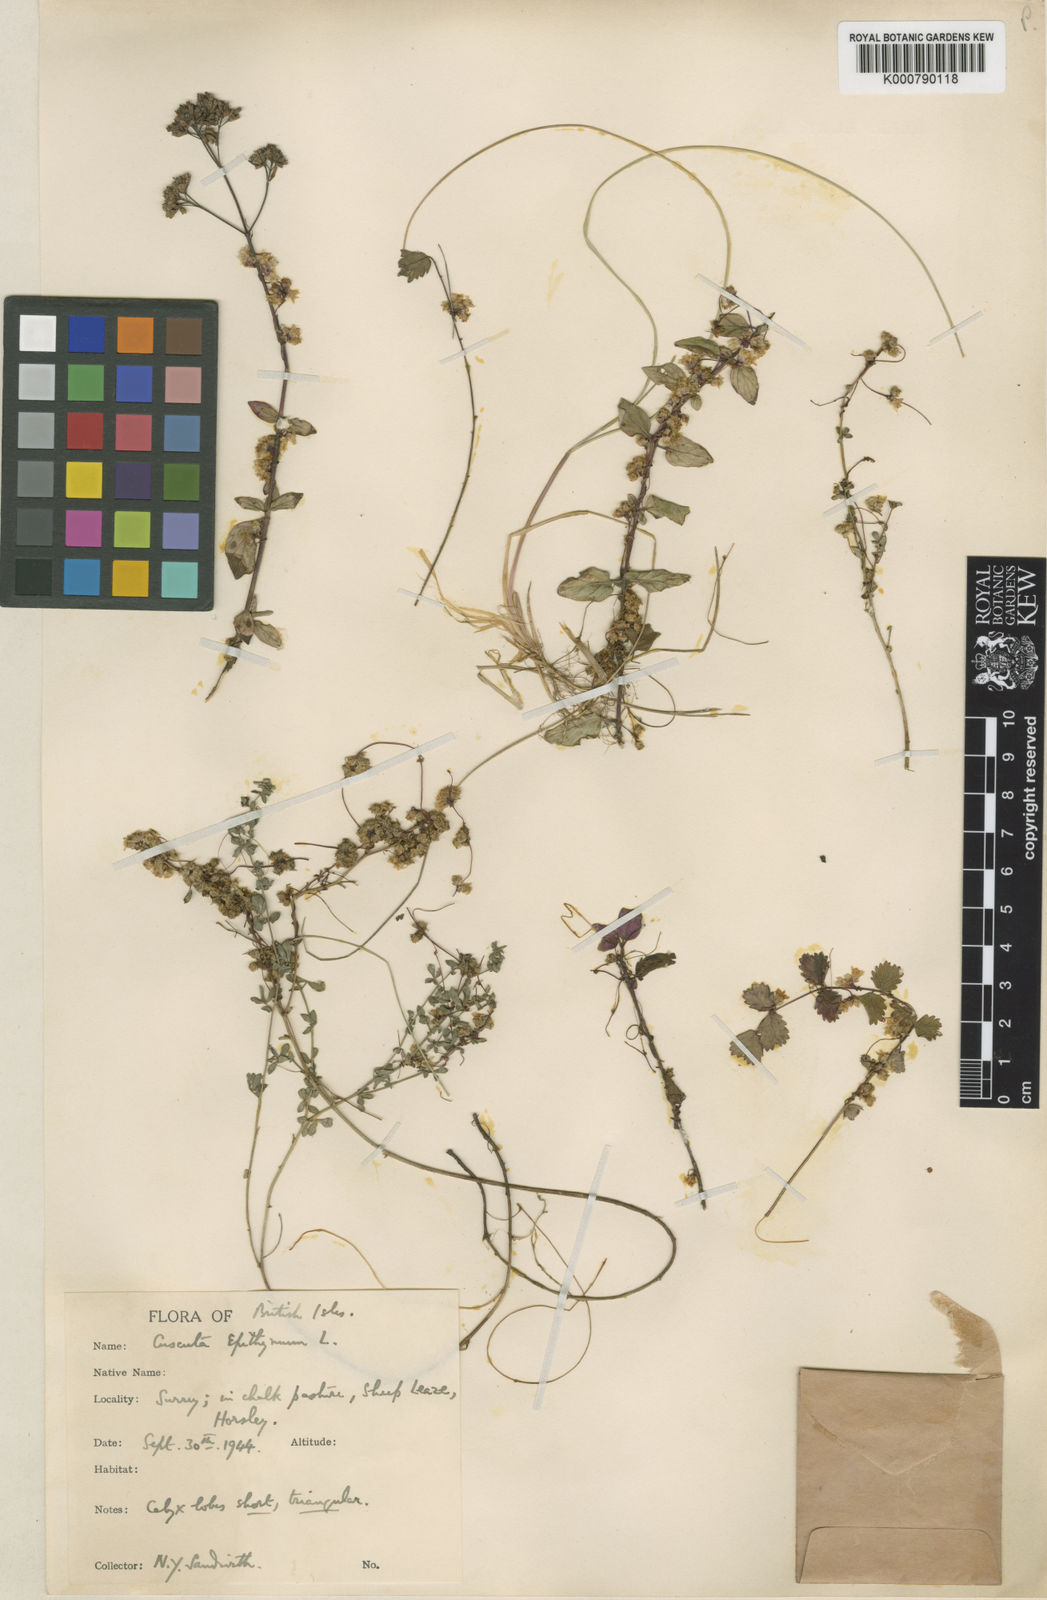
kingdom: Plantae
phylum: Tracheophyta
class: Magnoliopsida
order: Solanales
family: Convolvulaceae
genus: Cuscuta
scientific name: Cuscuta epithymum
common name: Clover dodder
